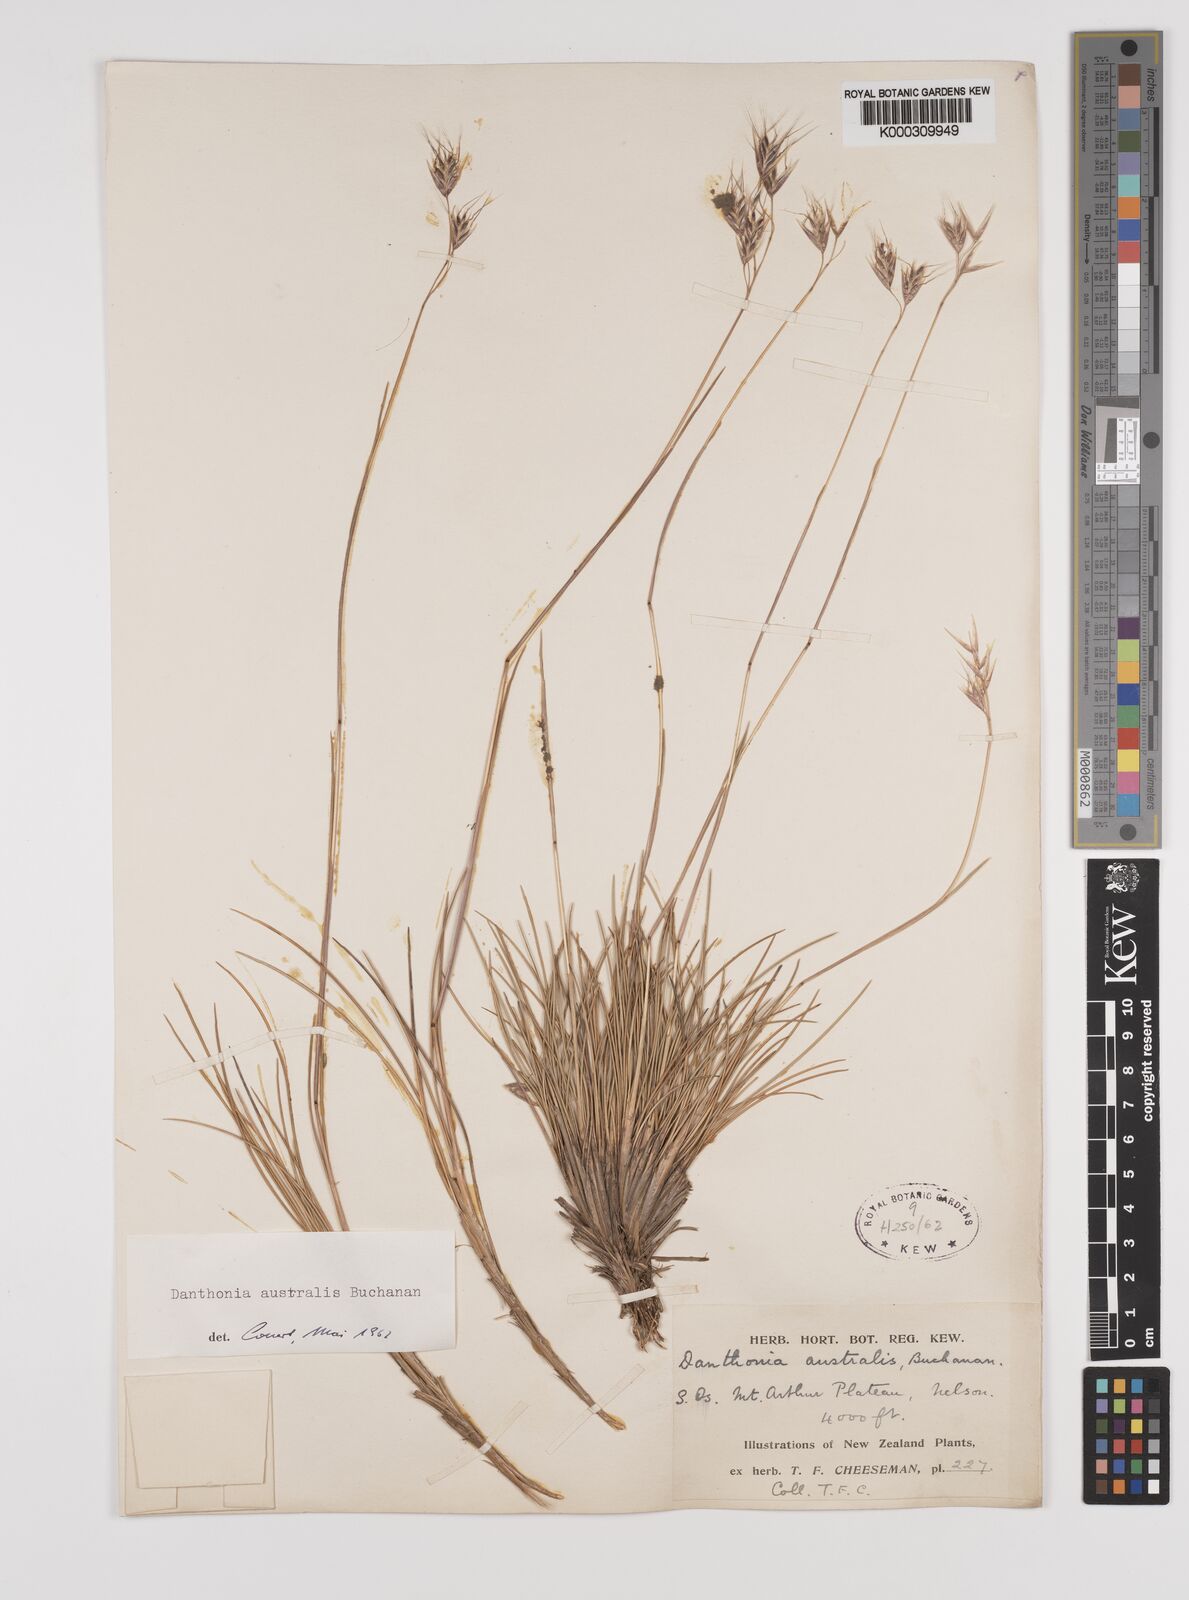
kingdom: Plantae
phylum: Tracheophyta
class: Liliopsida
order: Poales
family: Poaceae
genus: Chionochloa
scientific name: Chionochloa australis
